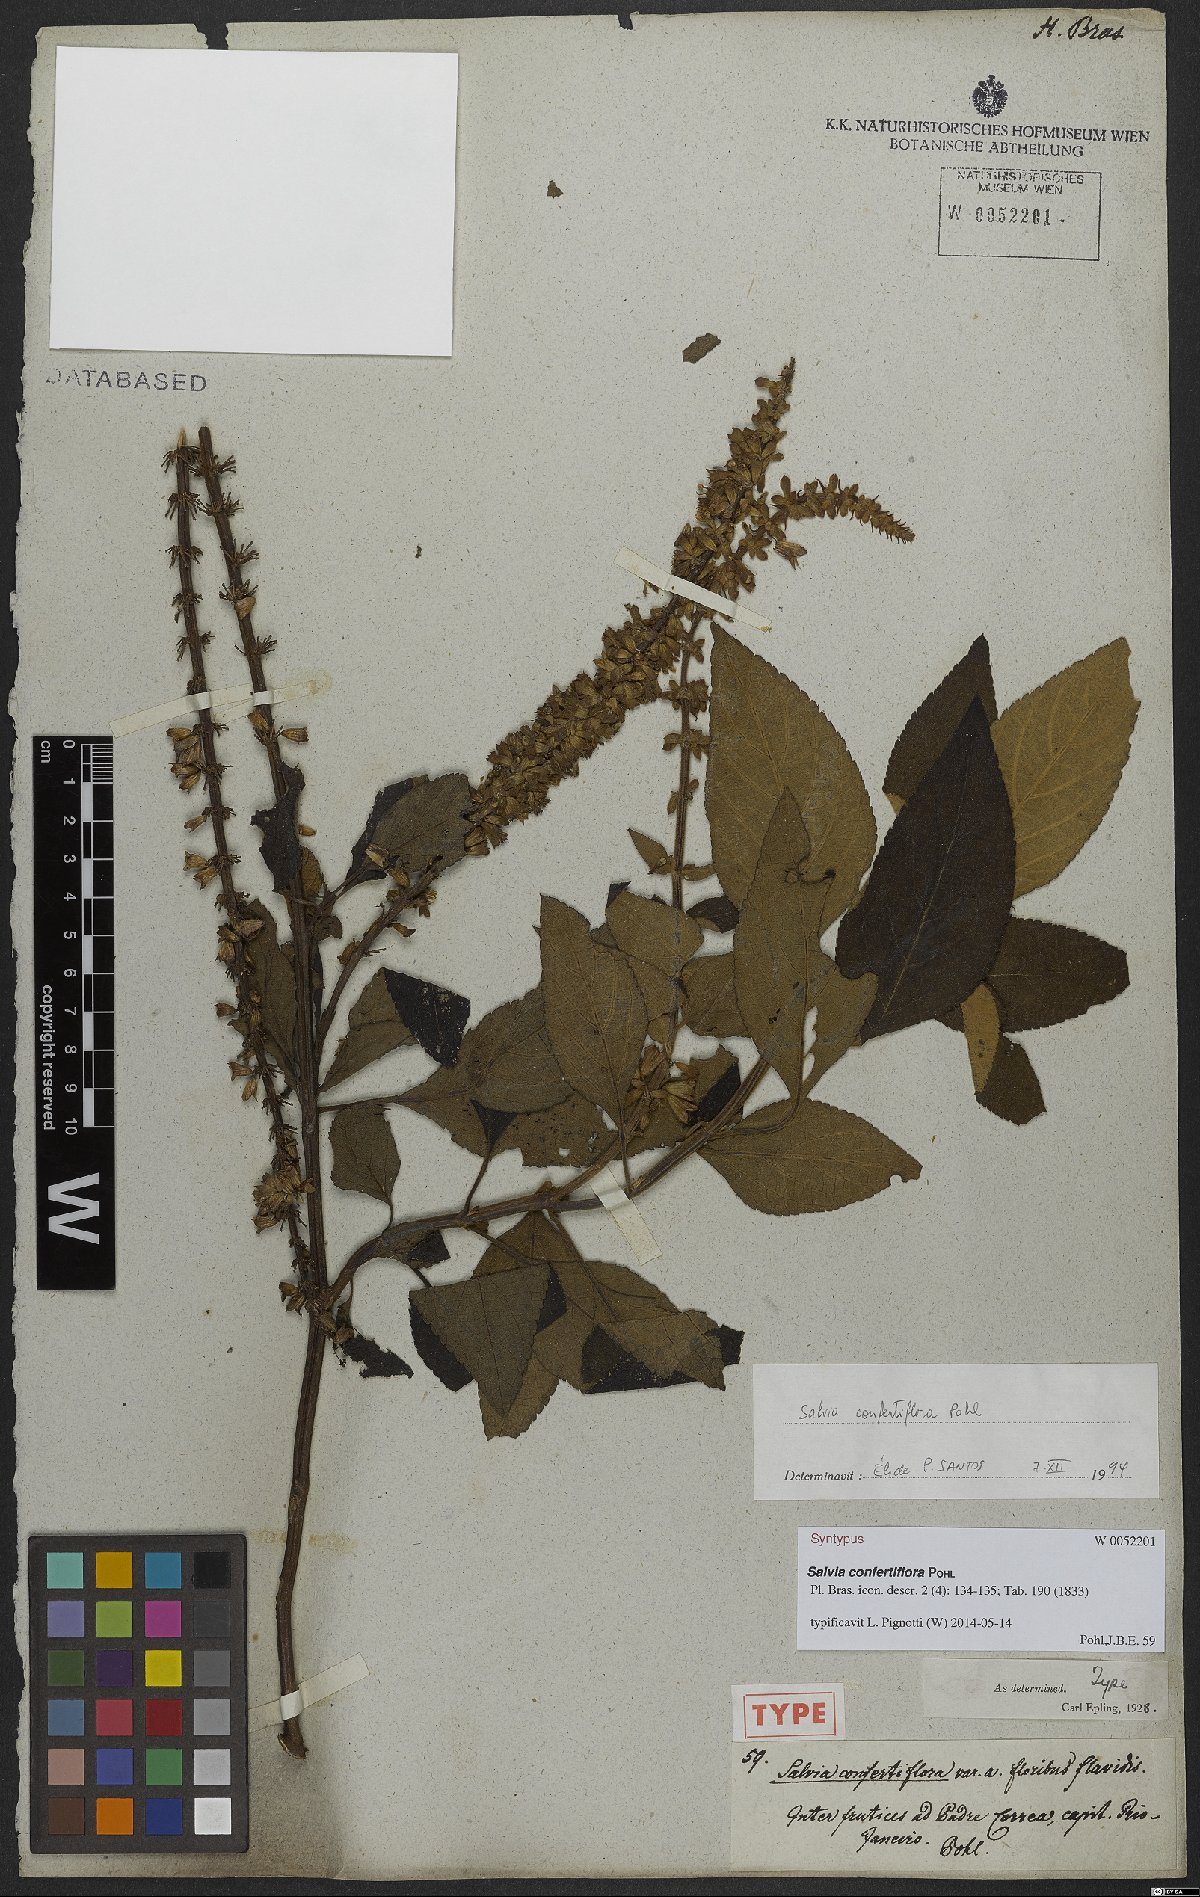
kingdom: Plantae
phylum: Tracheophyta
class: Magnoliopsida
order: Lamiales
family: Lamiaceae
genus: Salvia
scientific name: Salvia confertiflora
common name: Sabra-spike sage
